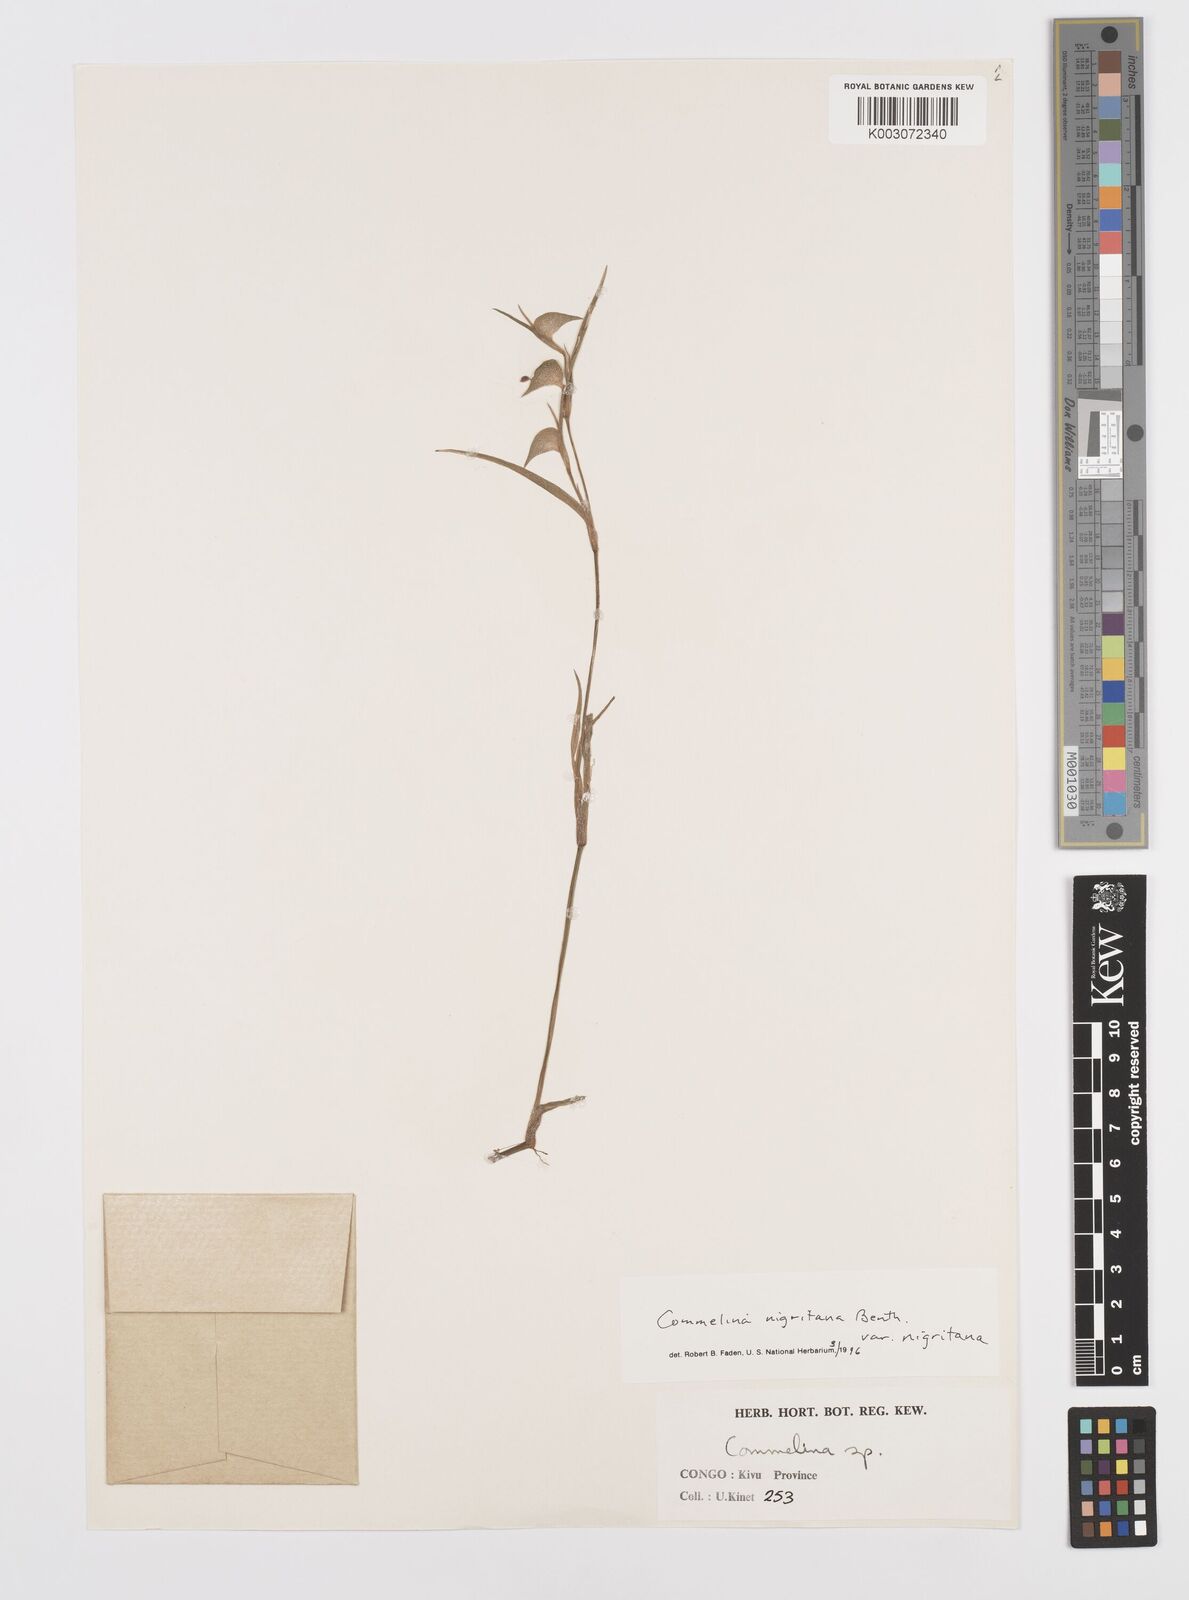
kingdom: Plantae
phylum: Tracheophyta
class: Liliopsida
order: Commelinales
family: Commelinaceae
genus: Commelina
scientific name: Commelina
